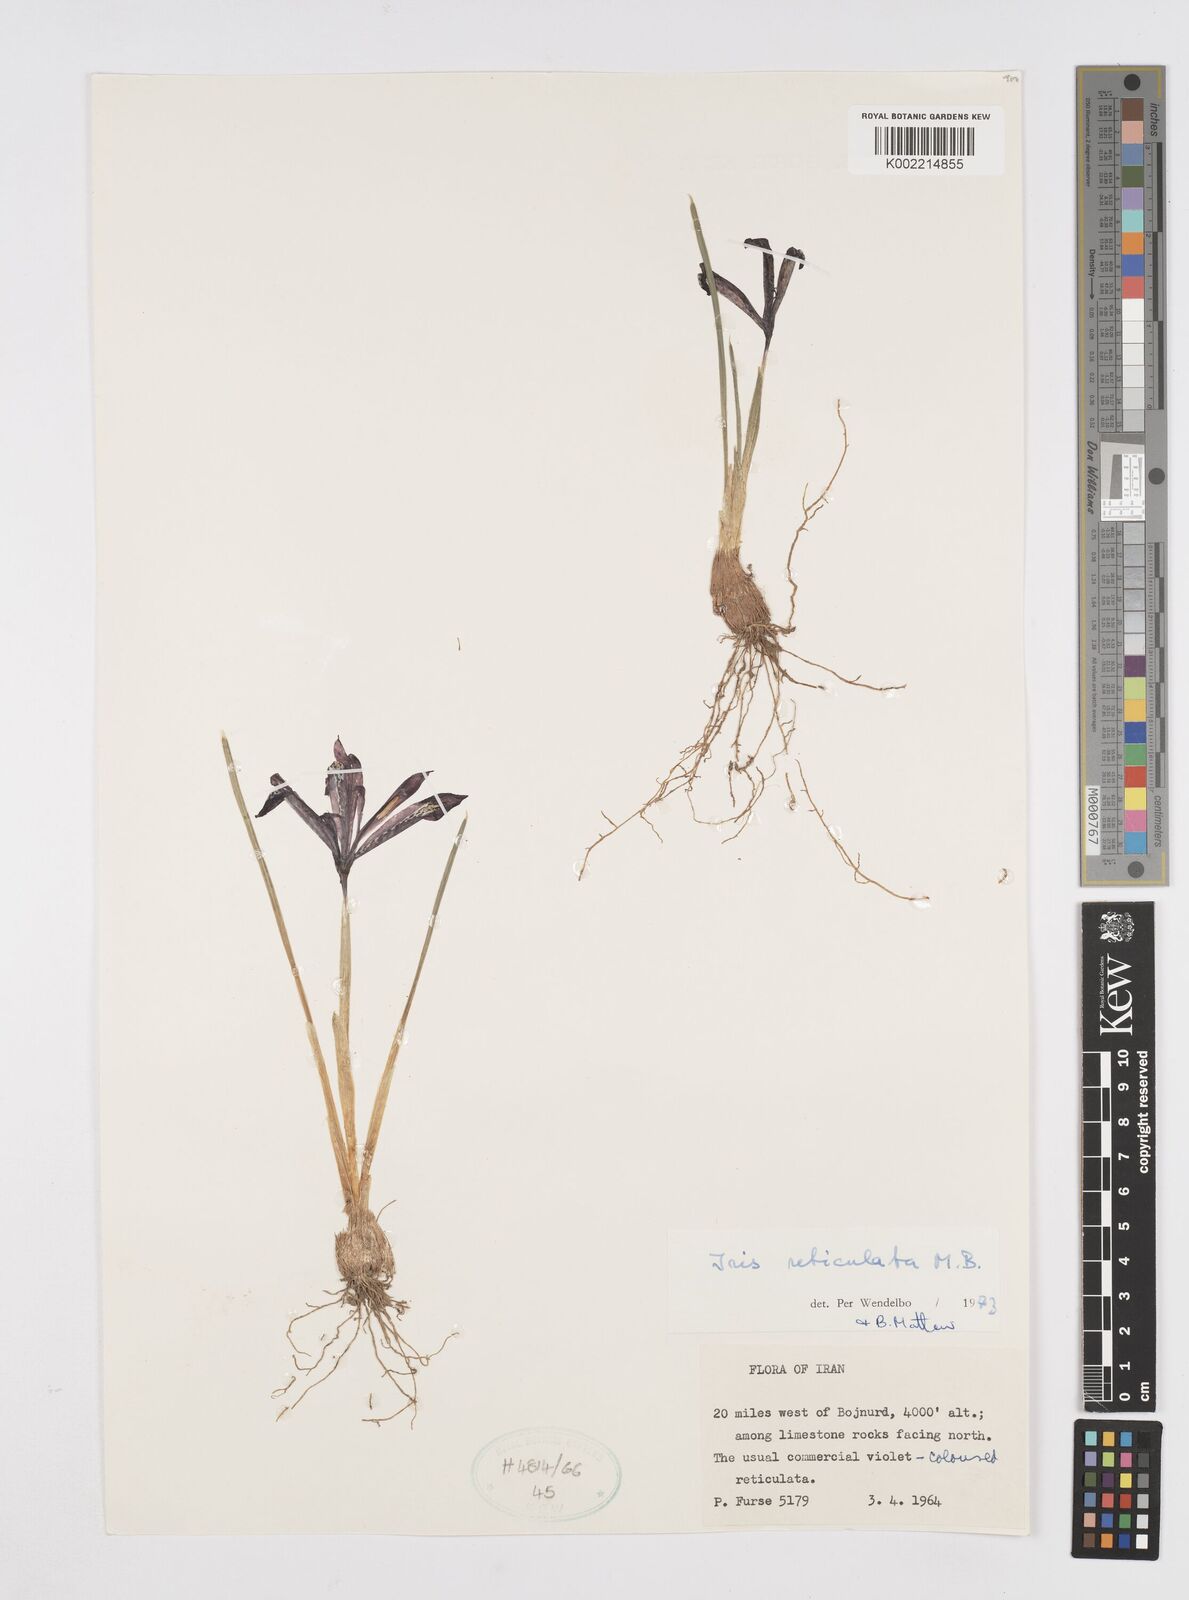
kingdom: Plantae
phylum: Tracheophyta
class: Liliopsida
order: Asparagales
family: Iridaceae
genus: Iris
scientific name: Iris reticulata
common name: Netted iris
